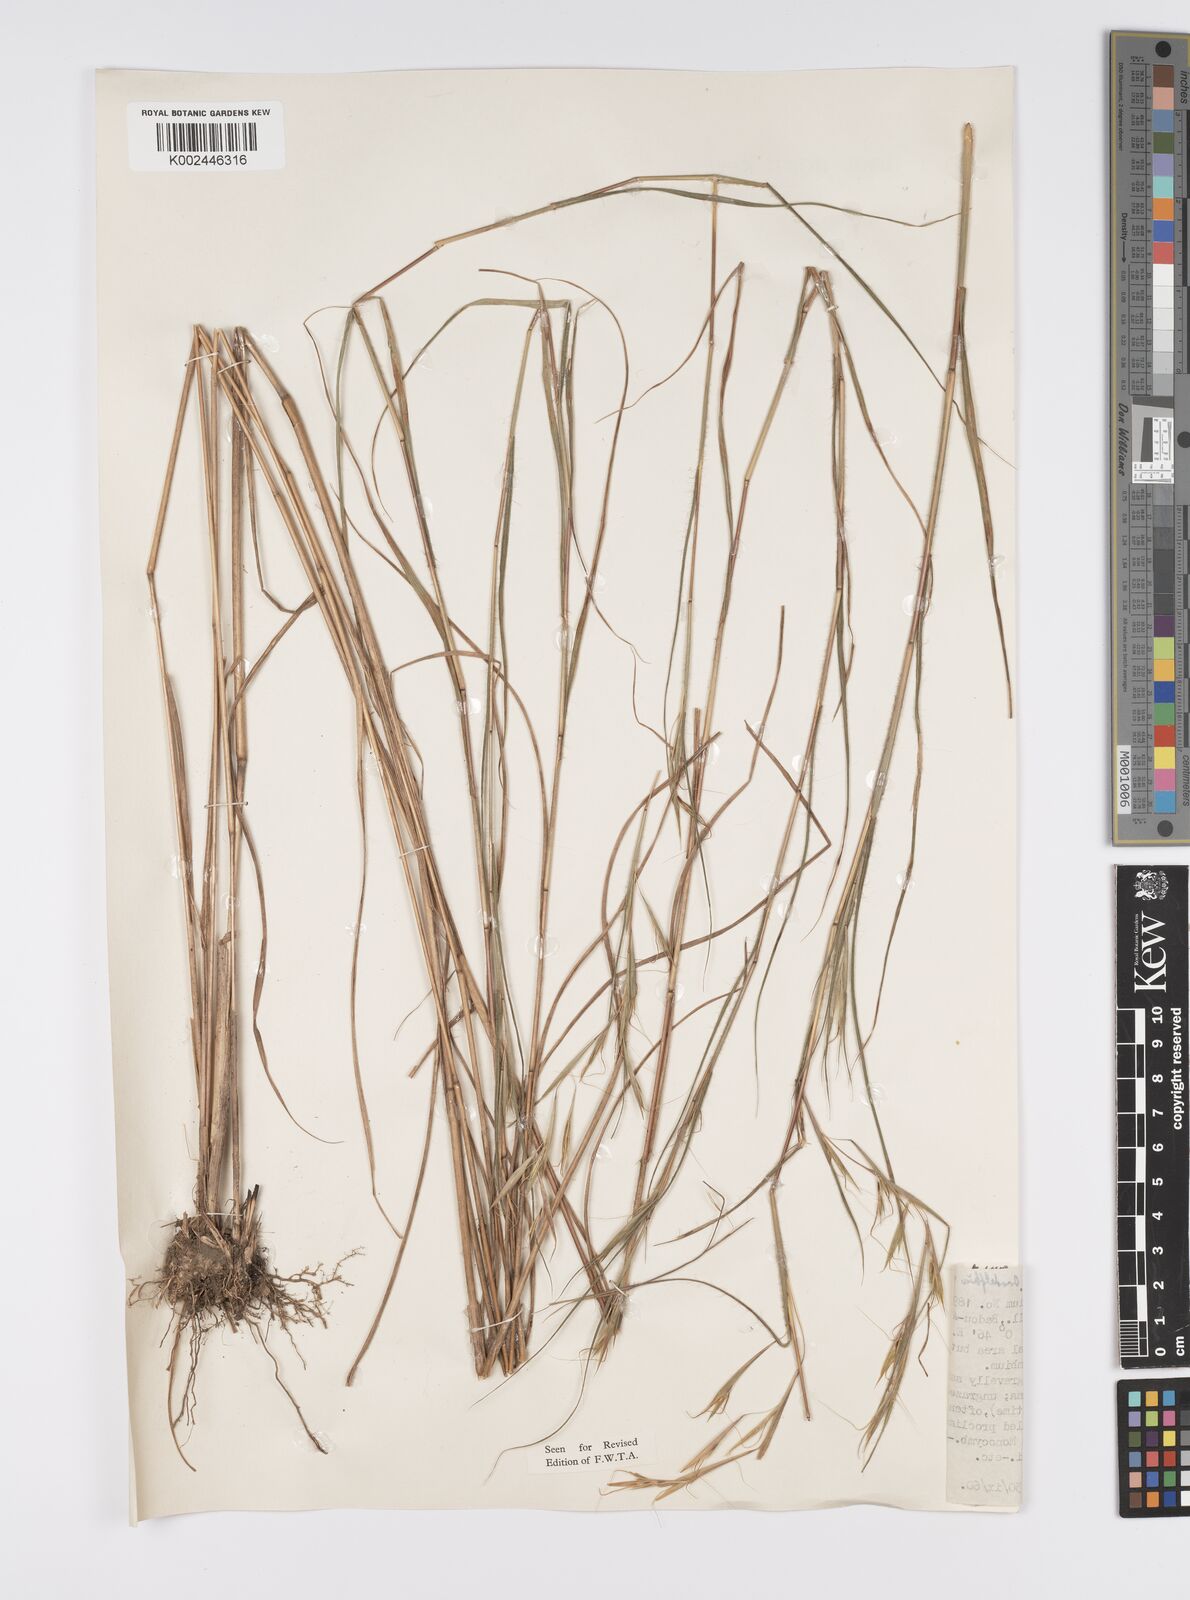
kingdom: Plantae
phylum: Tracheophyta
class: Liliopsida
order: Poales
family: Poaceae
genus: Anadelphia
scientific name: Anadelphia afzeliana
